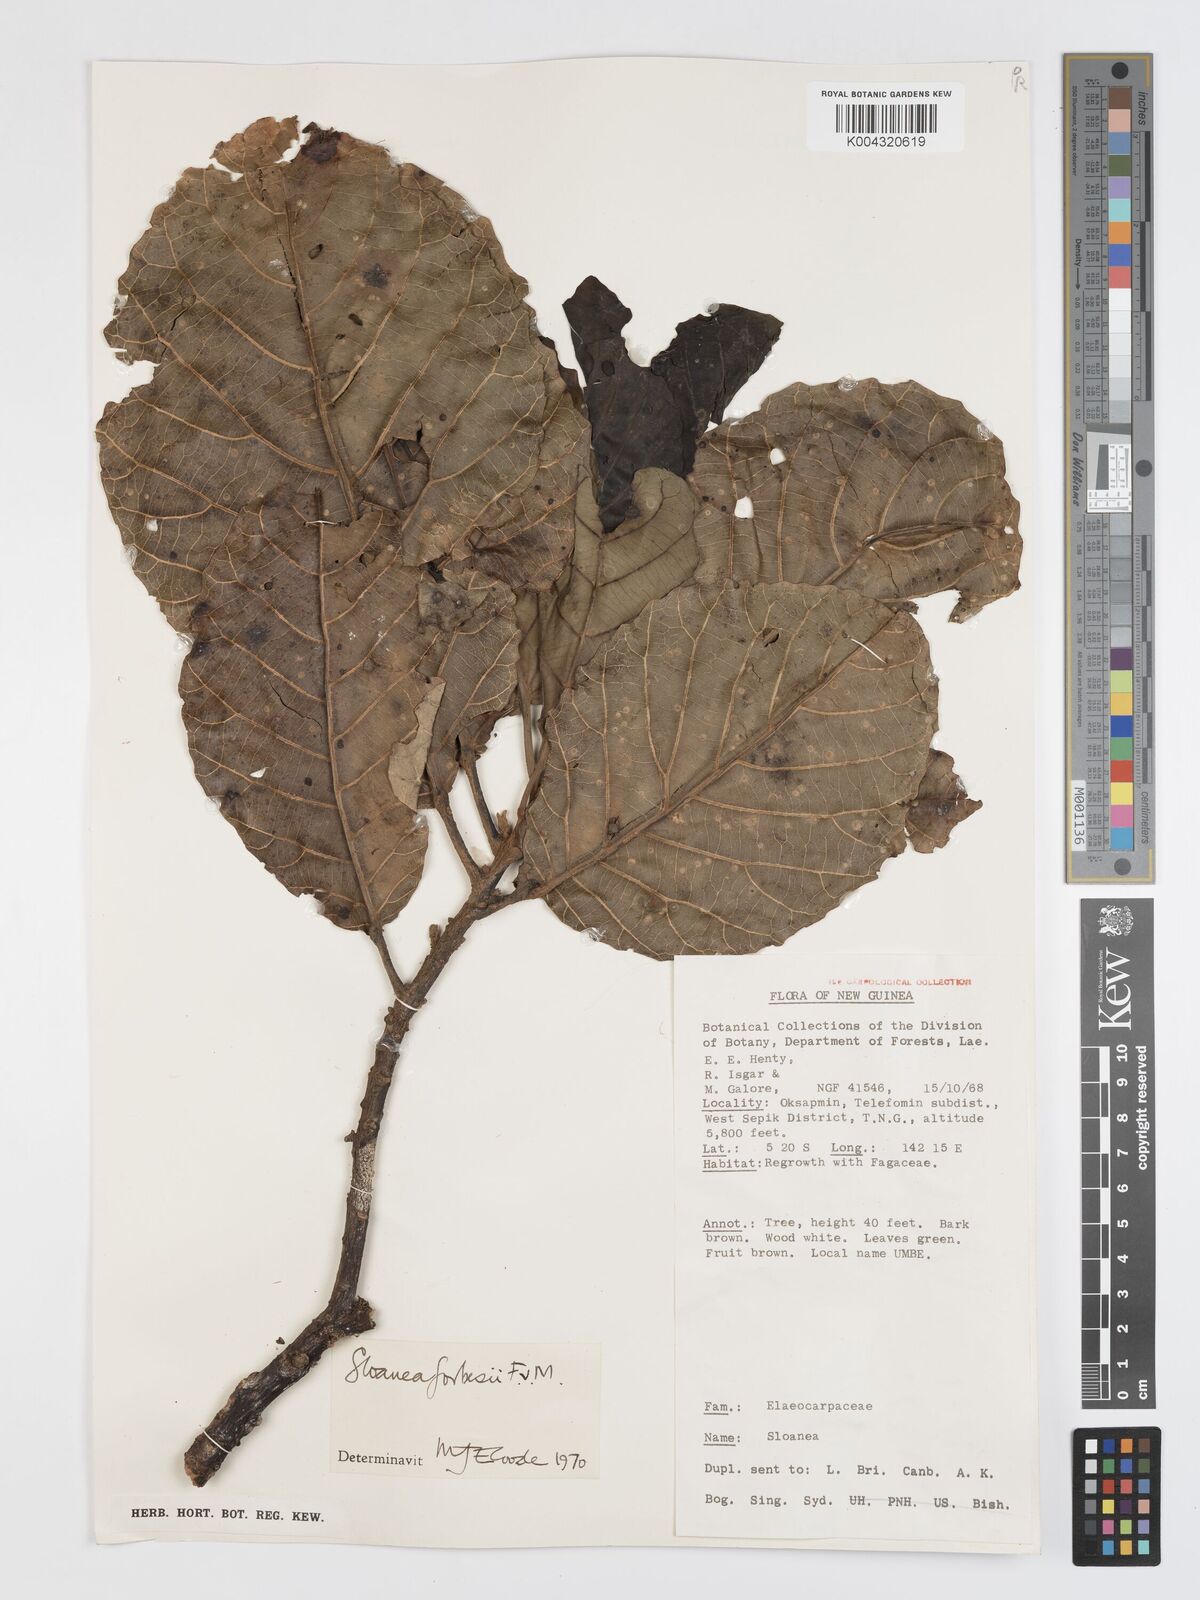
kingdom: Plantae
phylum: Tracheophyta
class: Magnoliopsida
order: Oxalidales
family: Elaeocarpaceae
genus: Sloanea
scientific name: Sloanea forbesii
